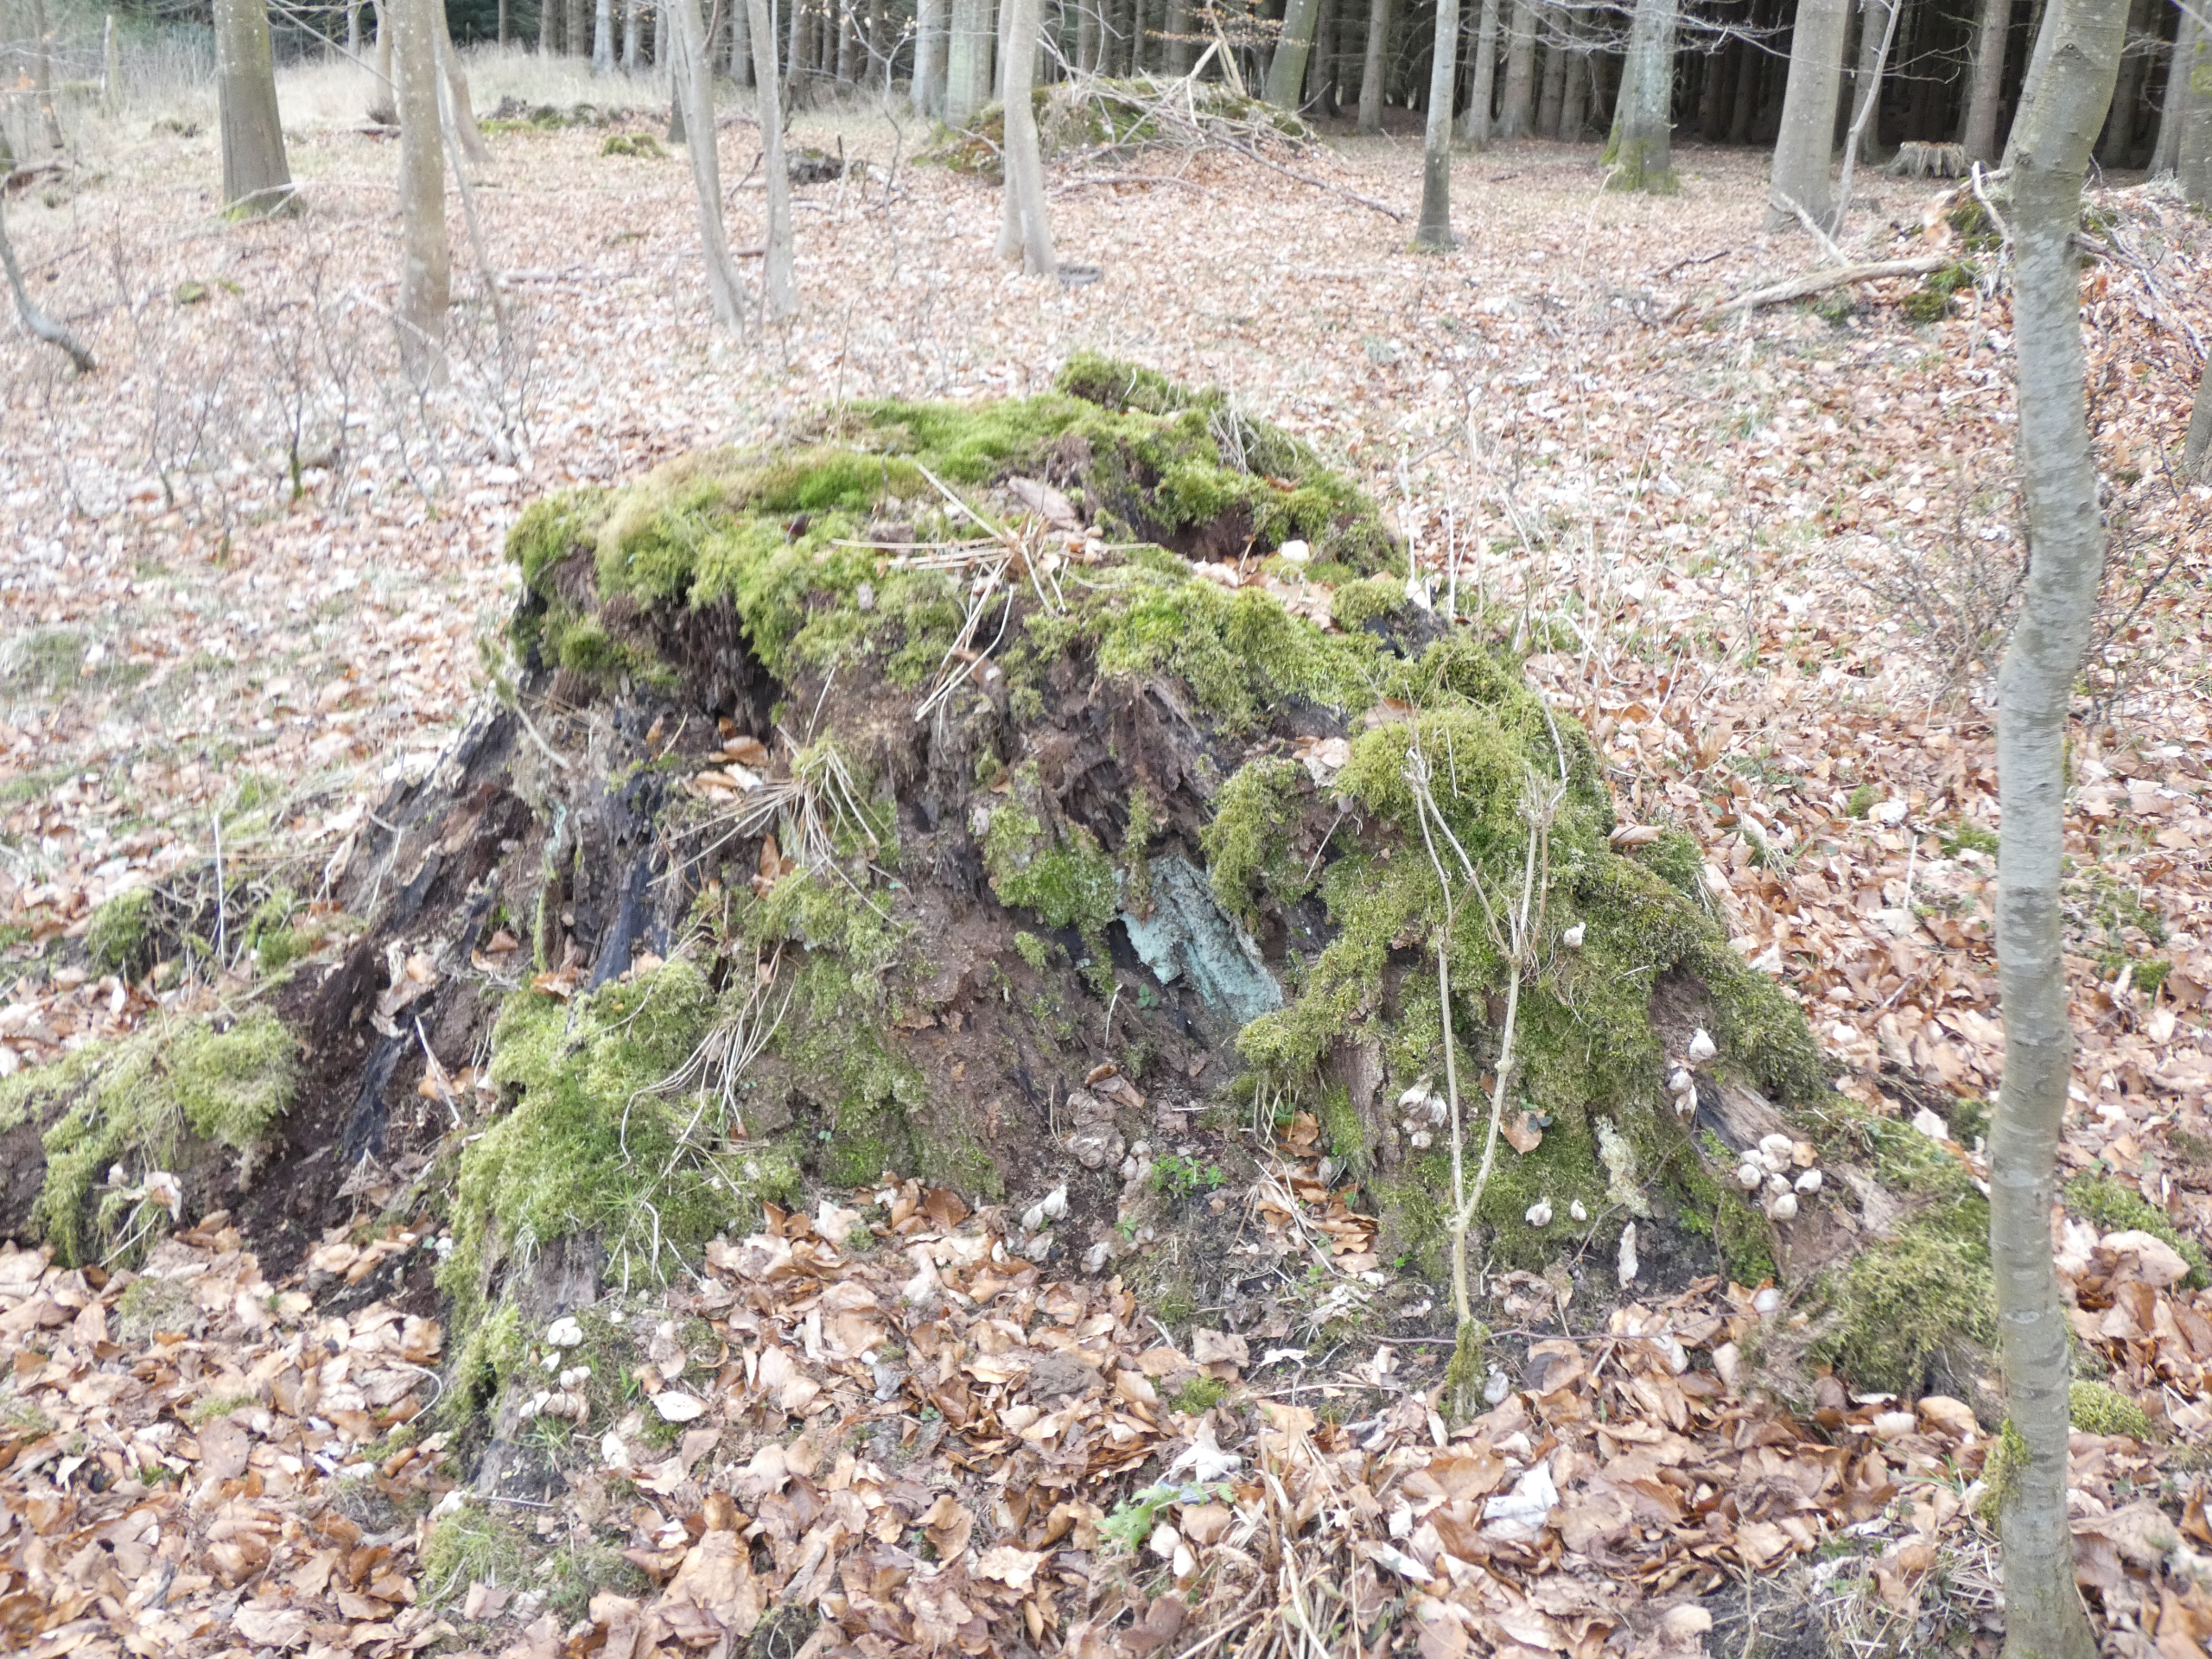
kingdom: Fungi
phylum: Basidiomycota
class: Agaricomycetes
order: Agaricales
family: Lycoperdaceae
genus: Apioperdon
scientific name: Apioperdon pyriforme
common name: Pære-støvbold
